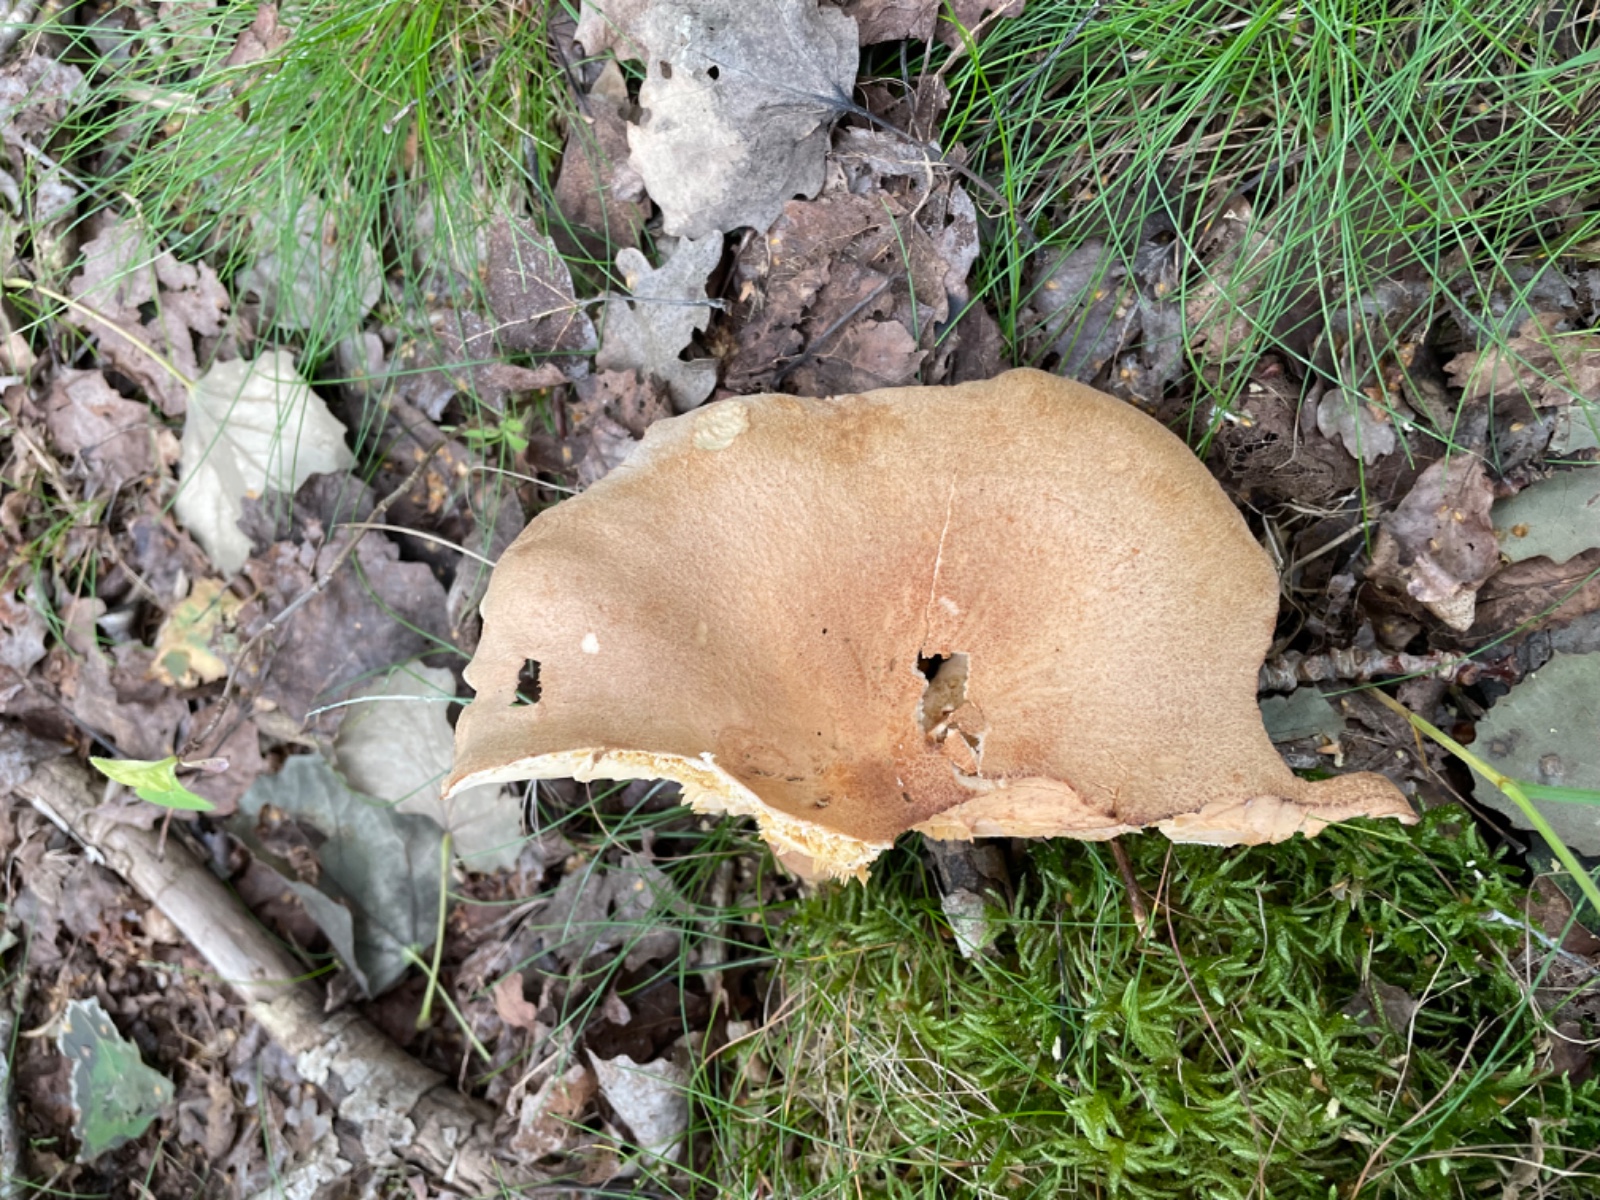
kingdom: Fungi
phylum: Basidiomycota
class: Agaricomycetes
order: Russulales
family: Russulaceae
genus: Lactarius
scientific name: Lactarius helvus
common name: mose-mælkehat
